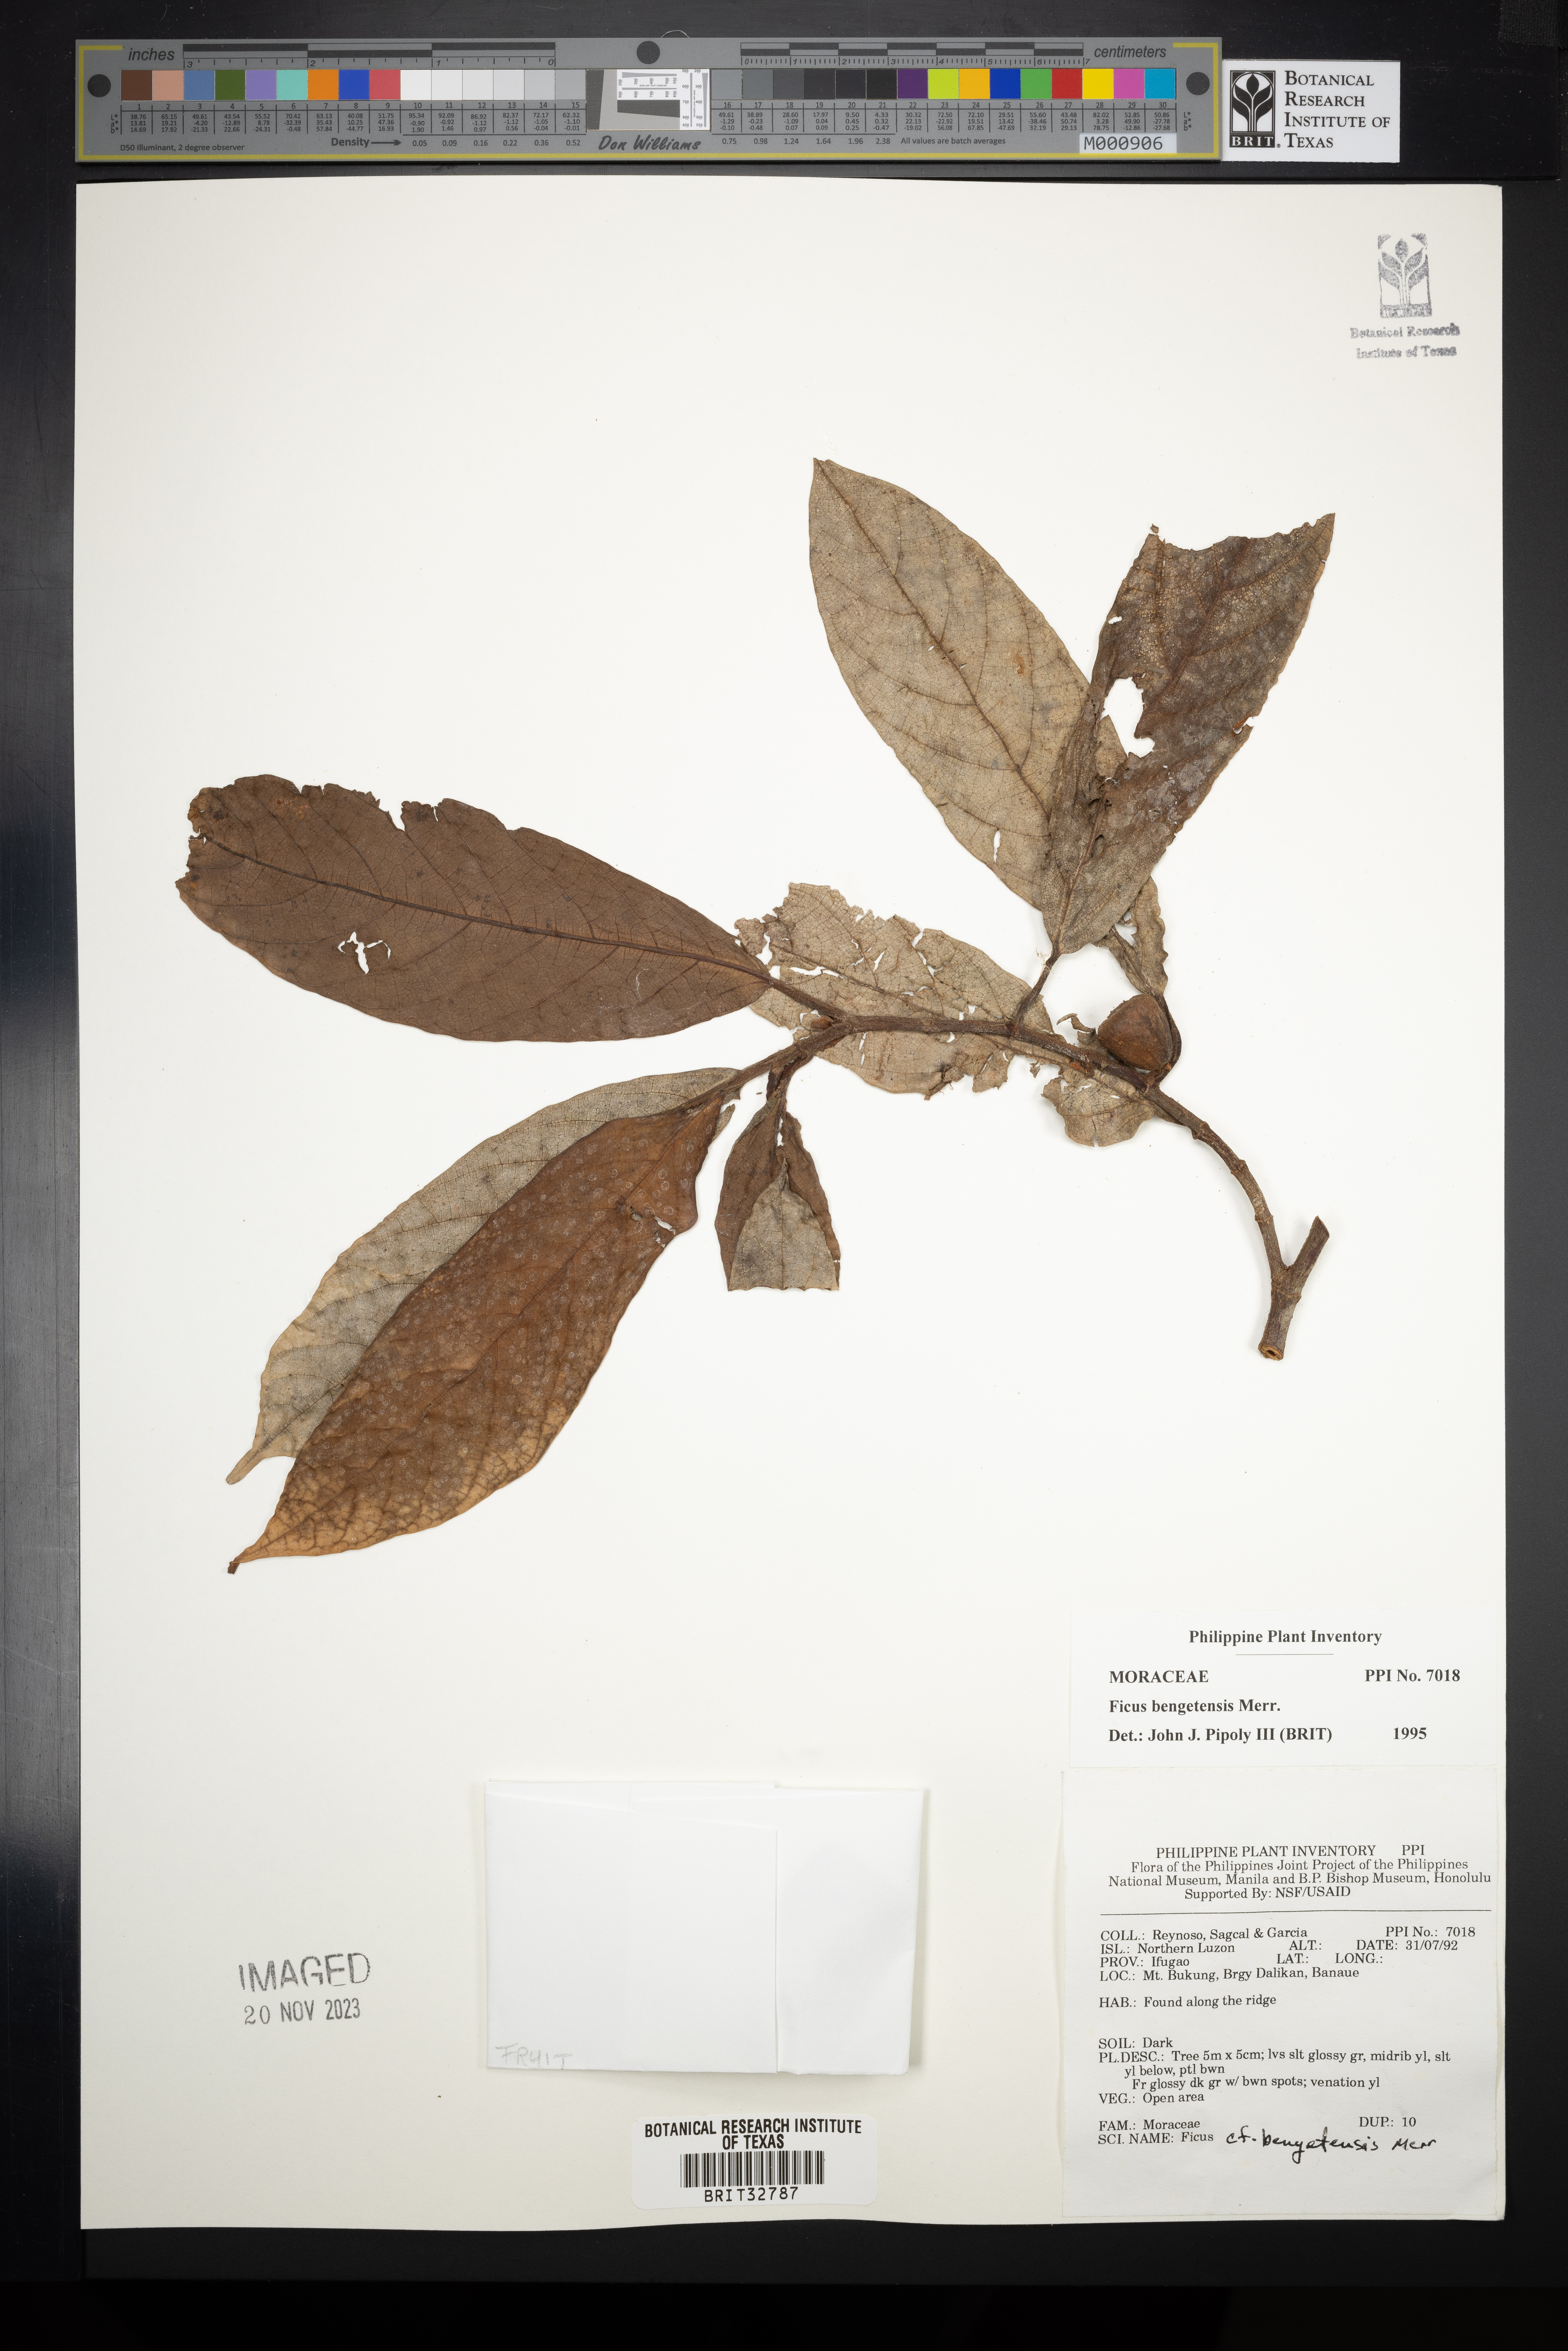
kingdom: Plantae
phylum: Tracheophyta
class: Magnoliopsida
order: Rosales
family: Moraceae
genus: Ficus
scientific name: Ficus benguetensis
